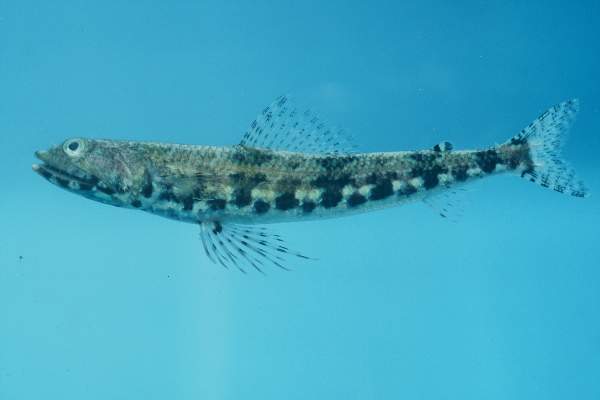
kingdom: Animalia
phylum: Chordata
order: Aulopiformes
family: Synodontidae
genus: Synodus
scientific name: Synodus binotatus
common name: Twospot lizardfish
